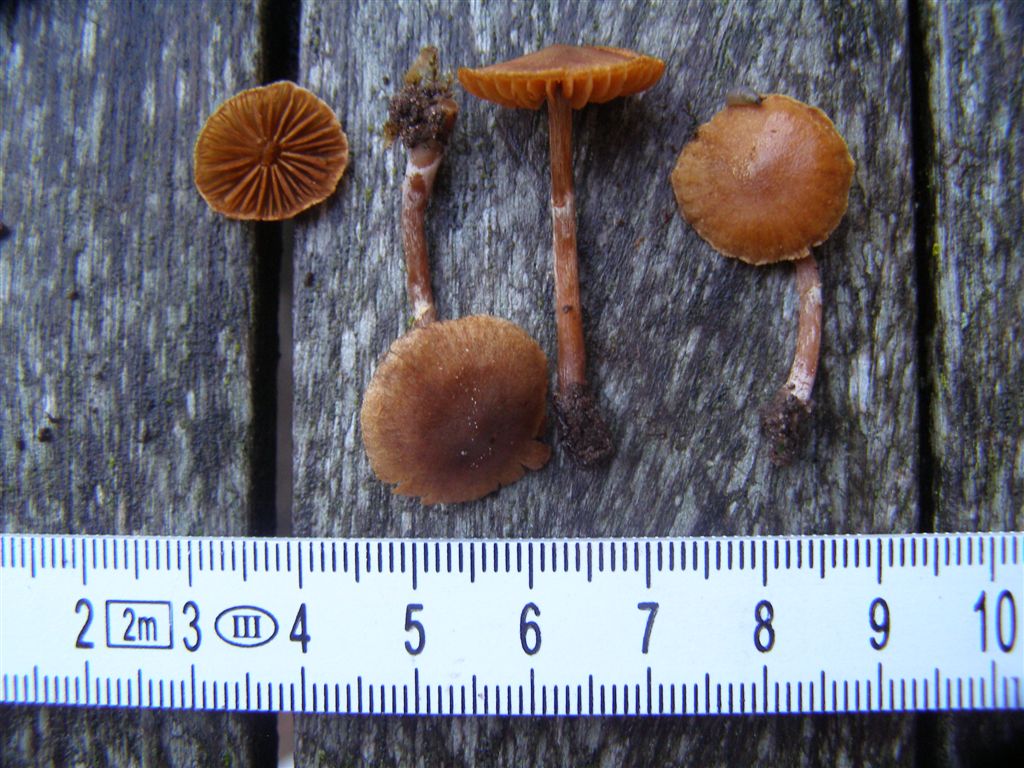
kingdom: Fungi
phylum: Basidiomycota
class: Agaricomycetes
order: Agaricales
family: Cortinariaceae
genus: Cortinarius
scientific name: Cortinarius pilatii
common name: Piláts slørhat
